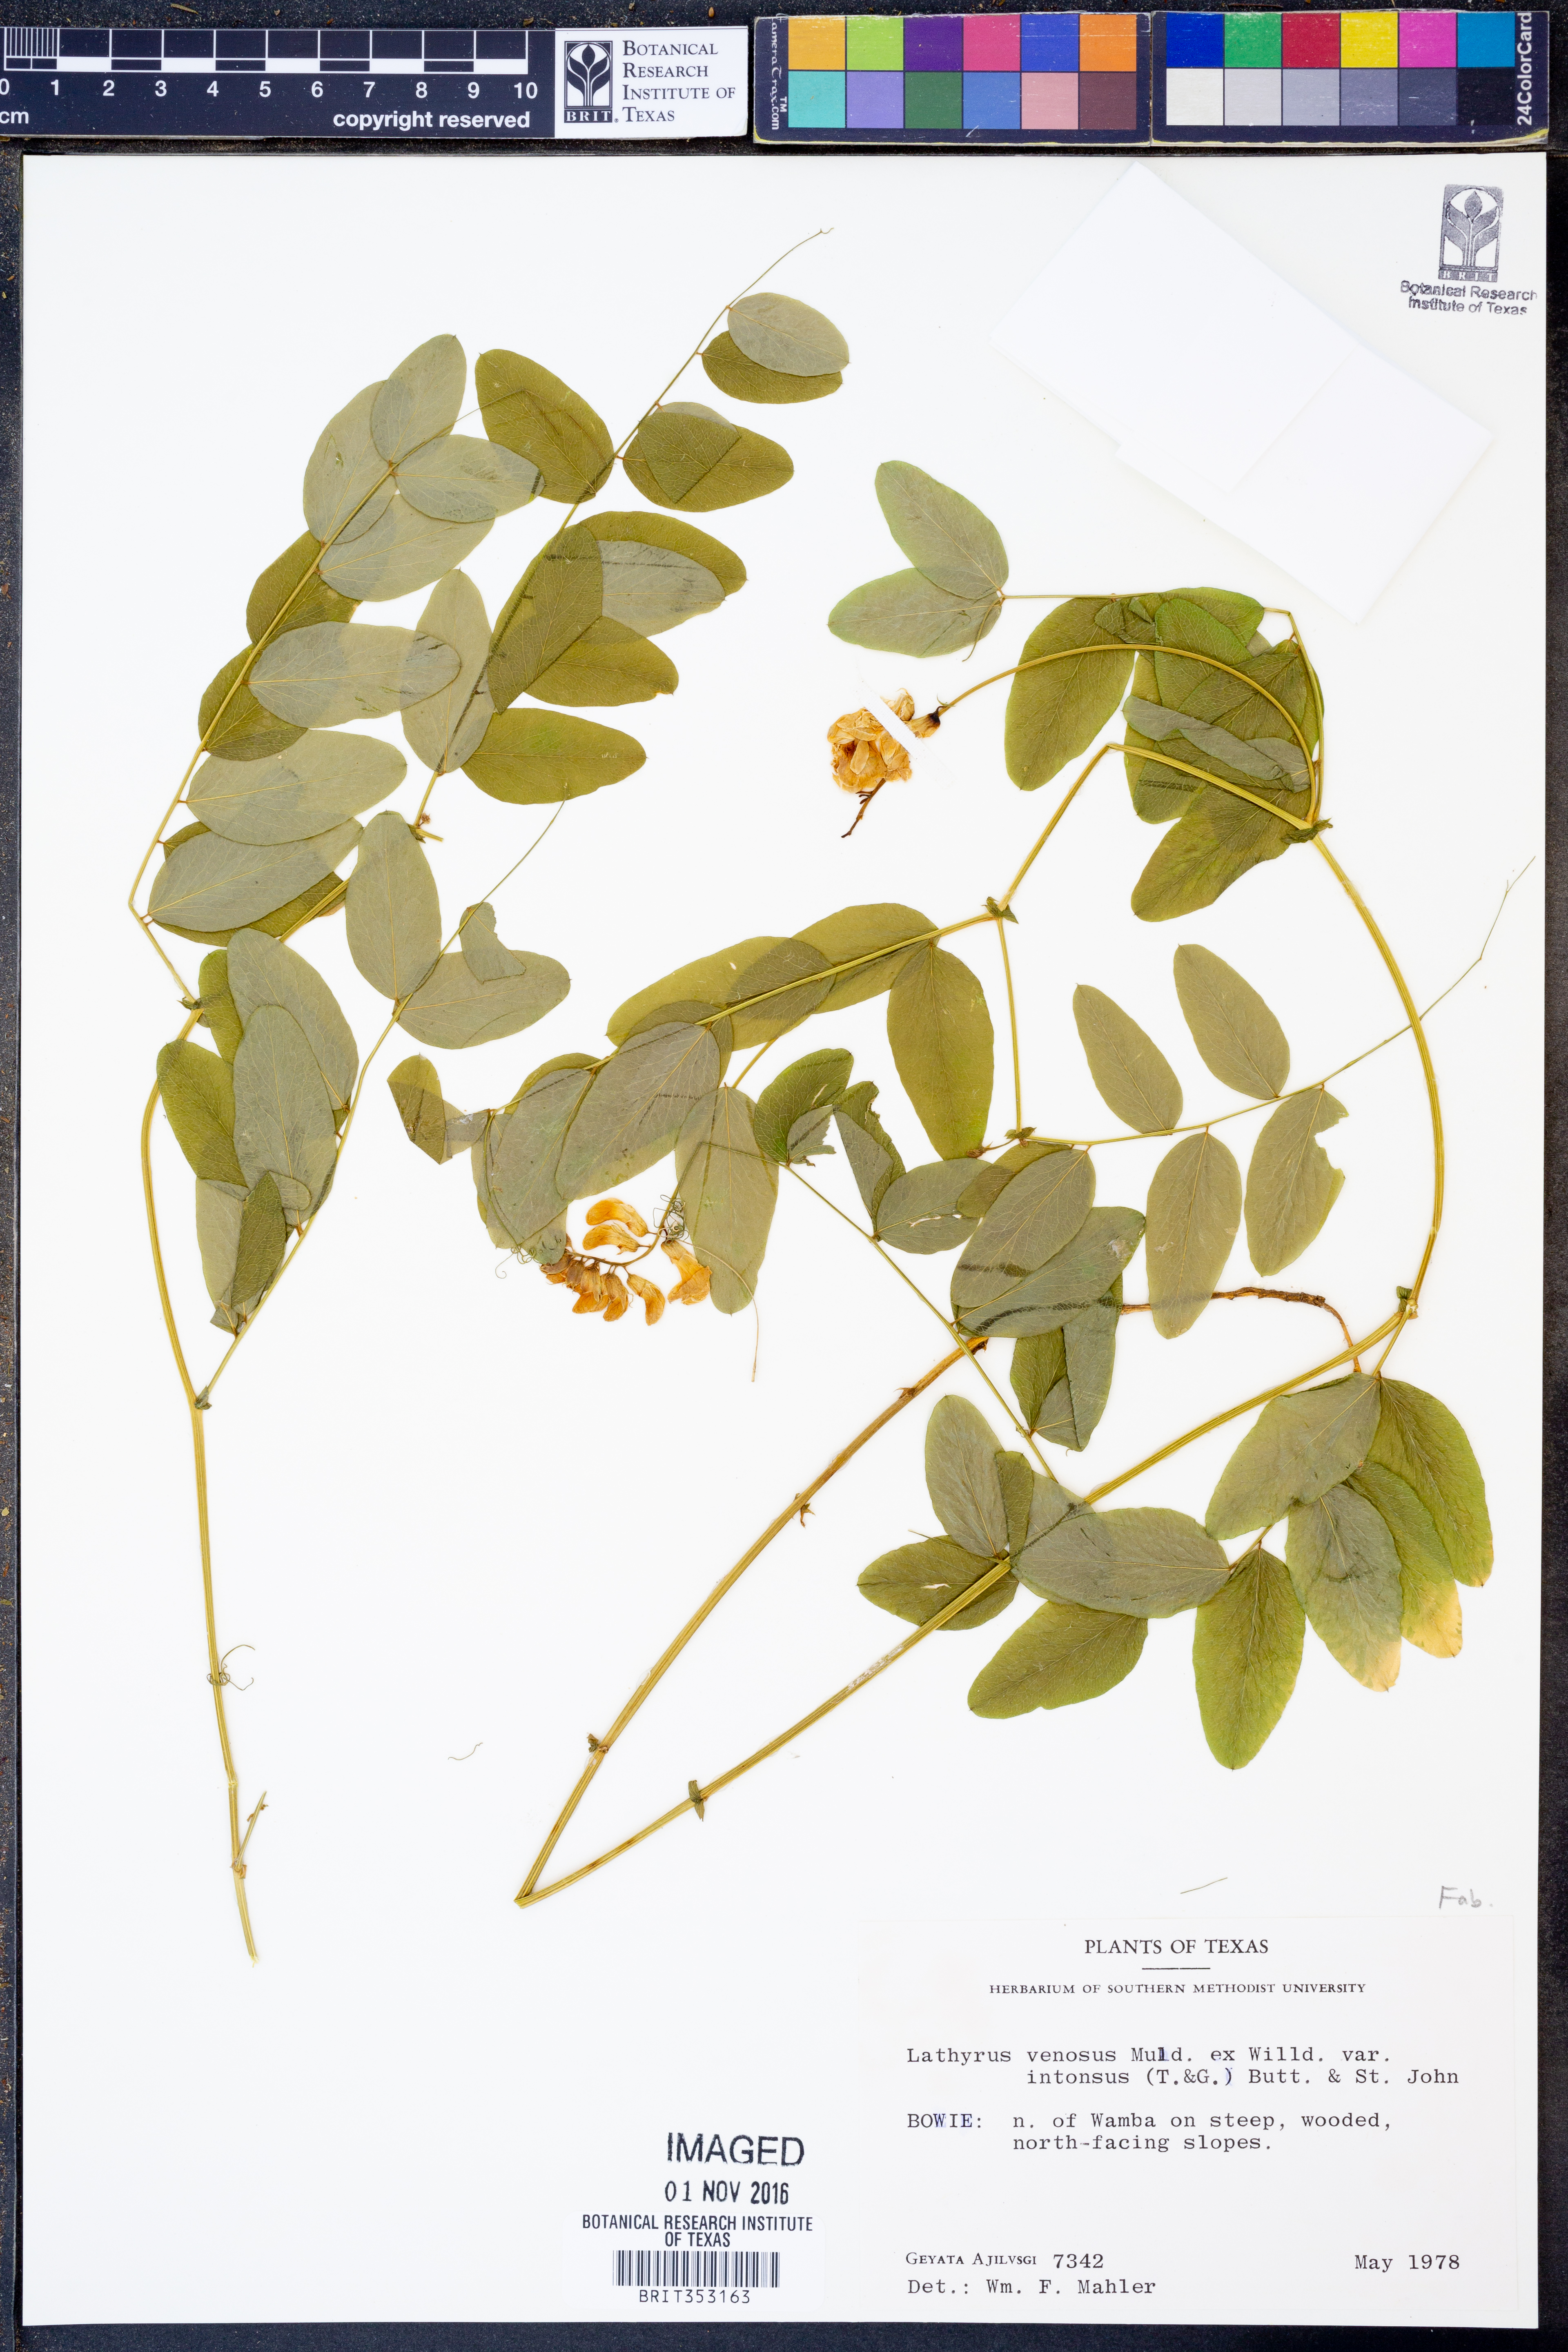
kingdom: Plantae
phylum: Tracheophyta
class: Magnoliopsida
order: Fabales
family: Fabaceae
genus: Lathyrus
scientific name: Lathyrus venosus
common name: Forest-pea
